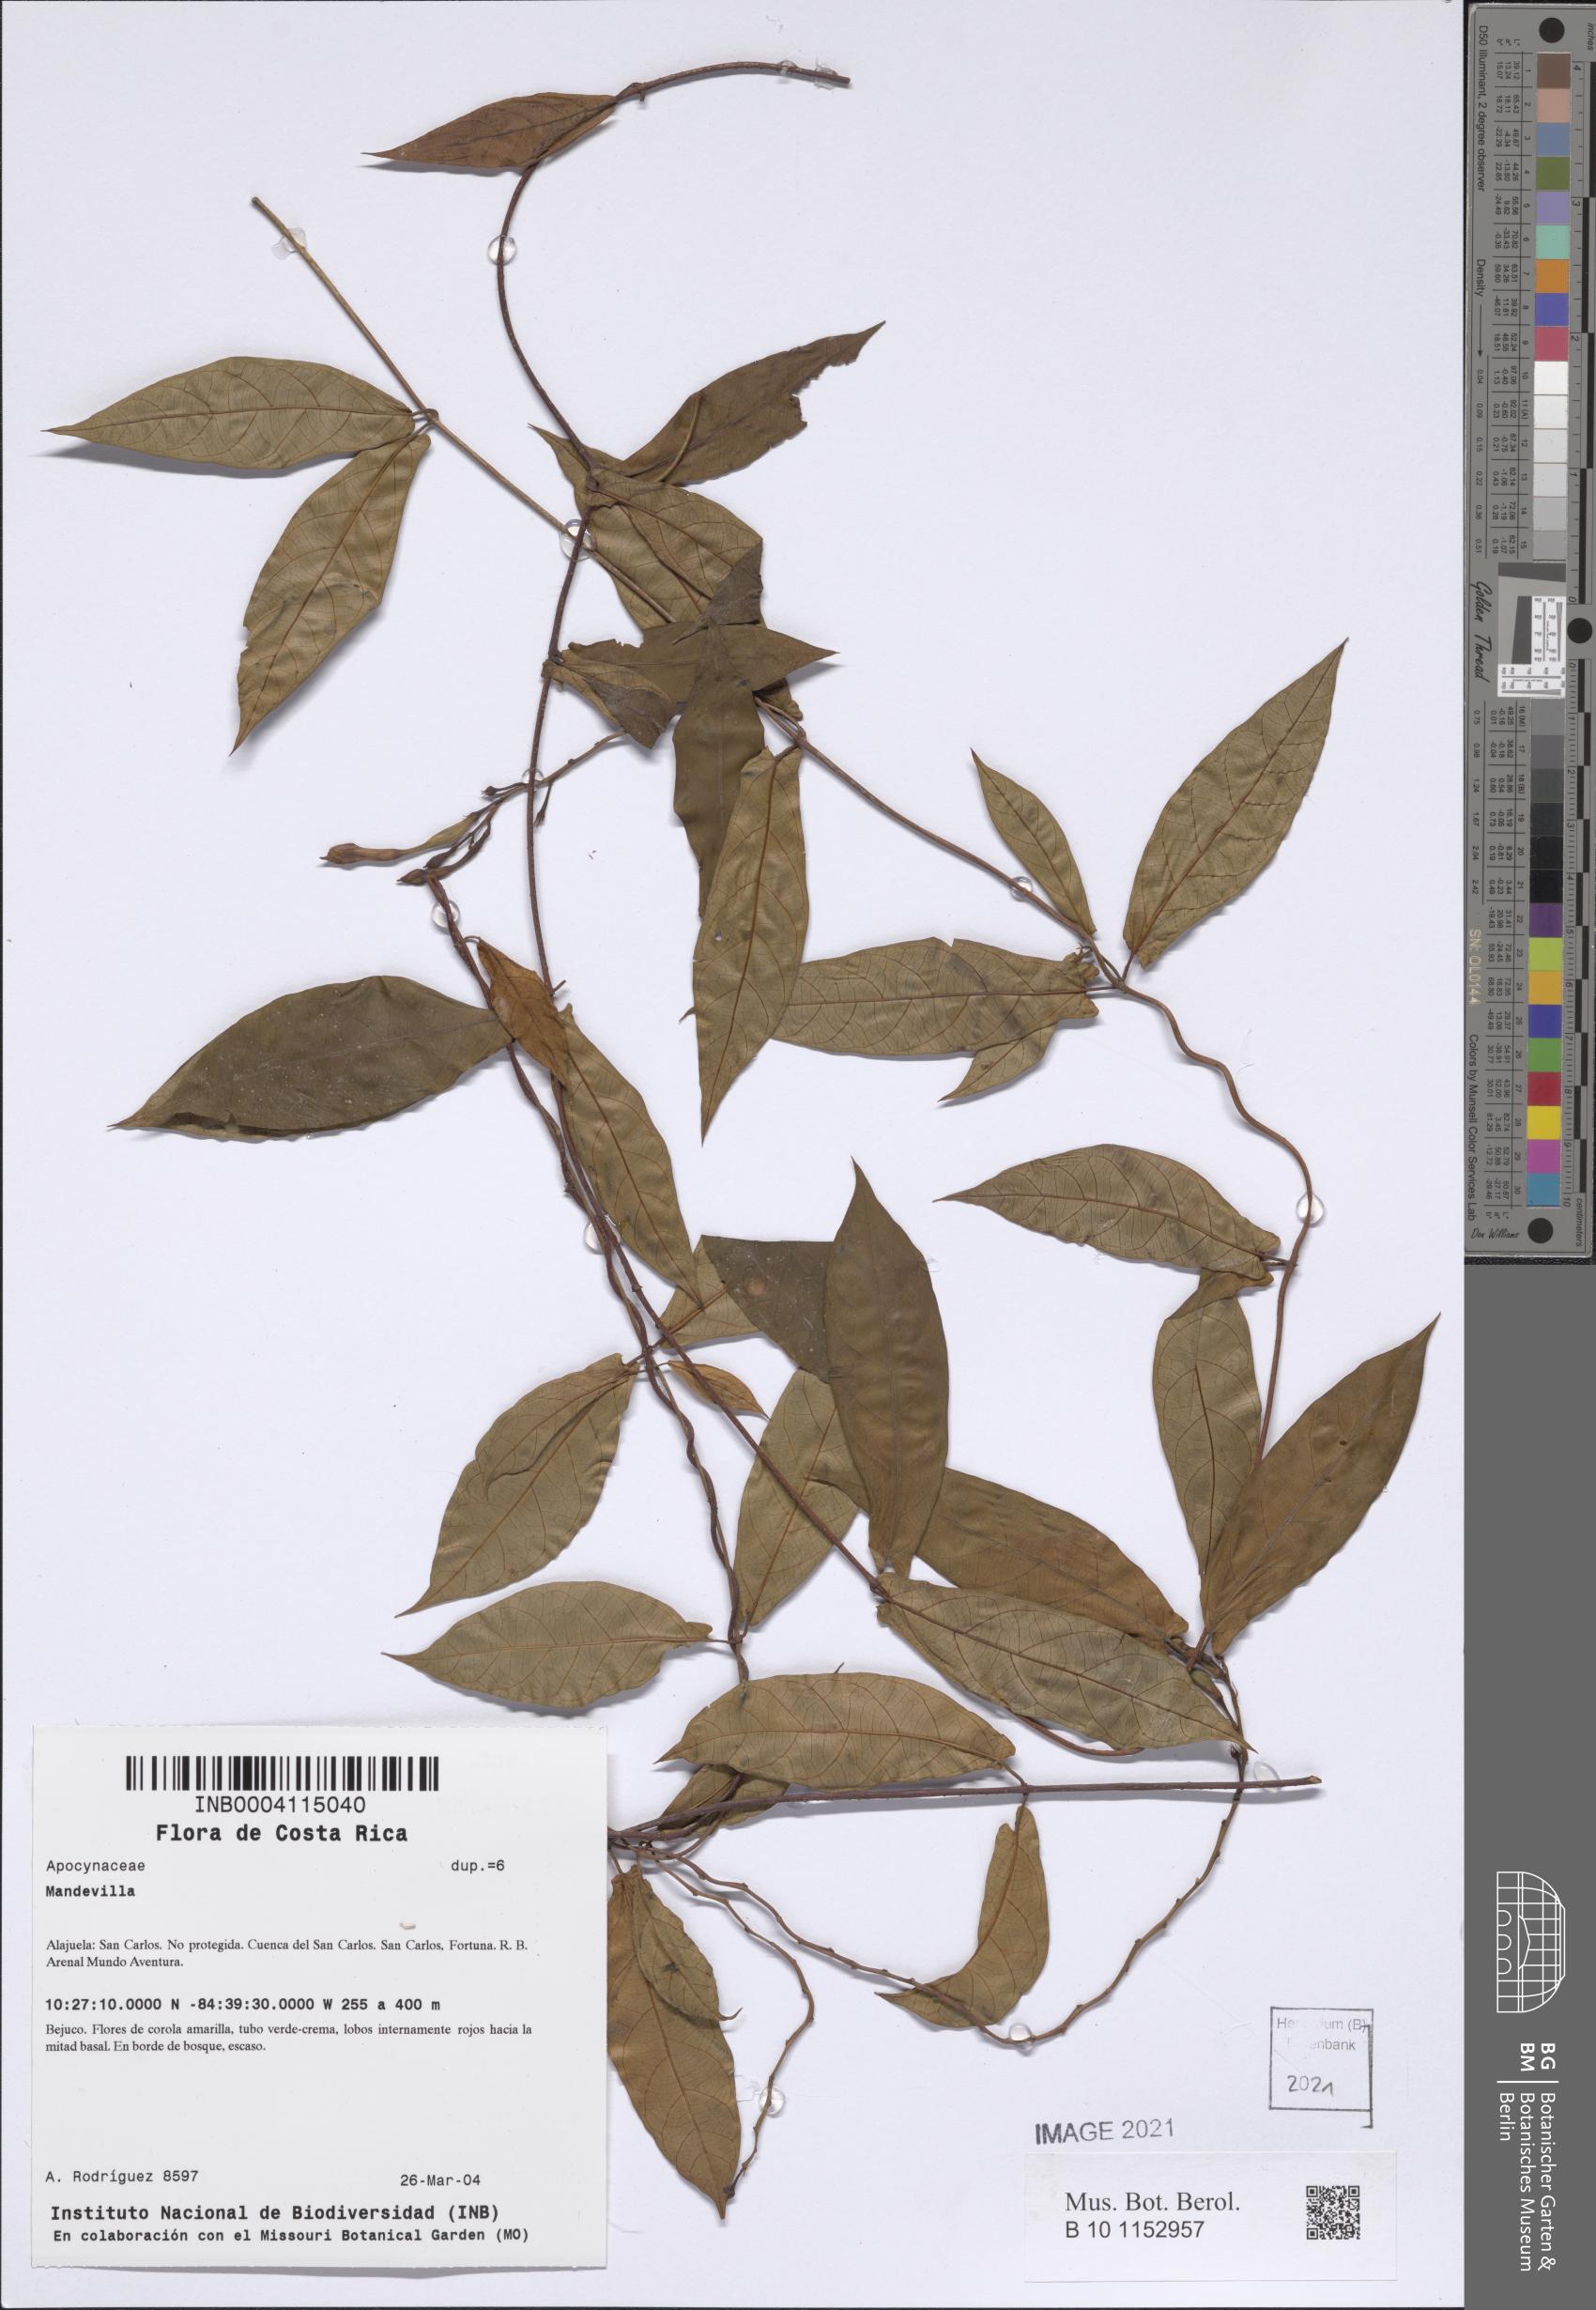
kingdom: Plantae
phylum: Tracheophyta
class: Magnoliopsida
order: Gentianales
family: Apocynaceae
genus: Mandevilla
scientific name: Mandevilla subsagittata
